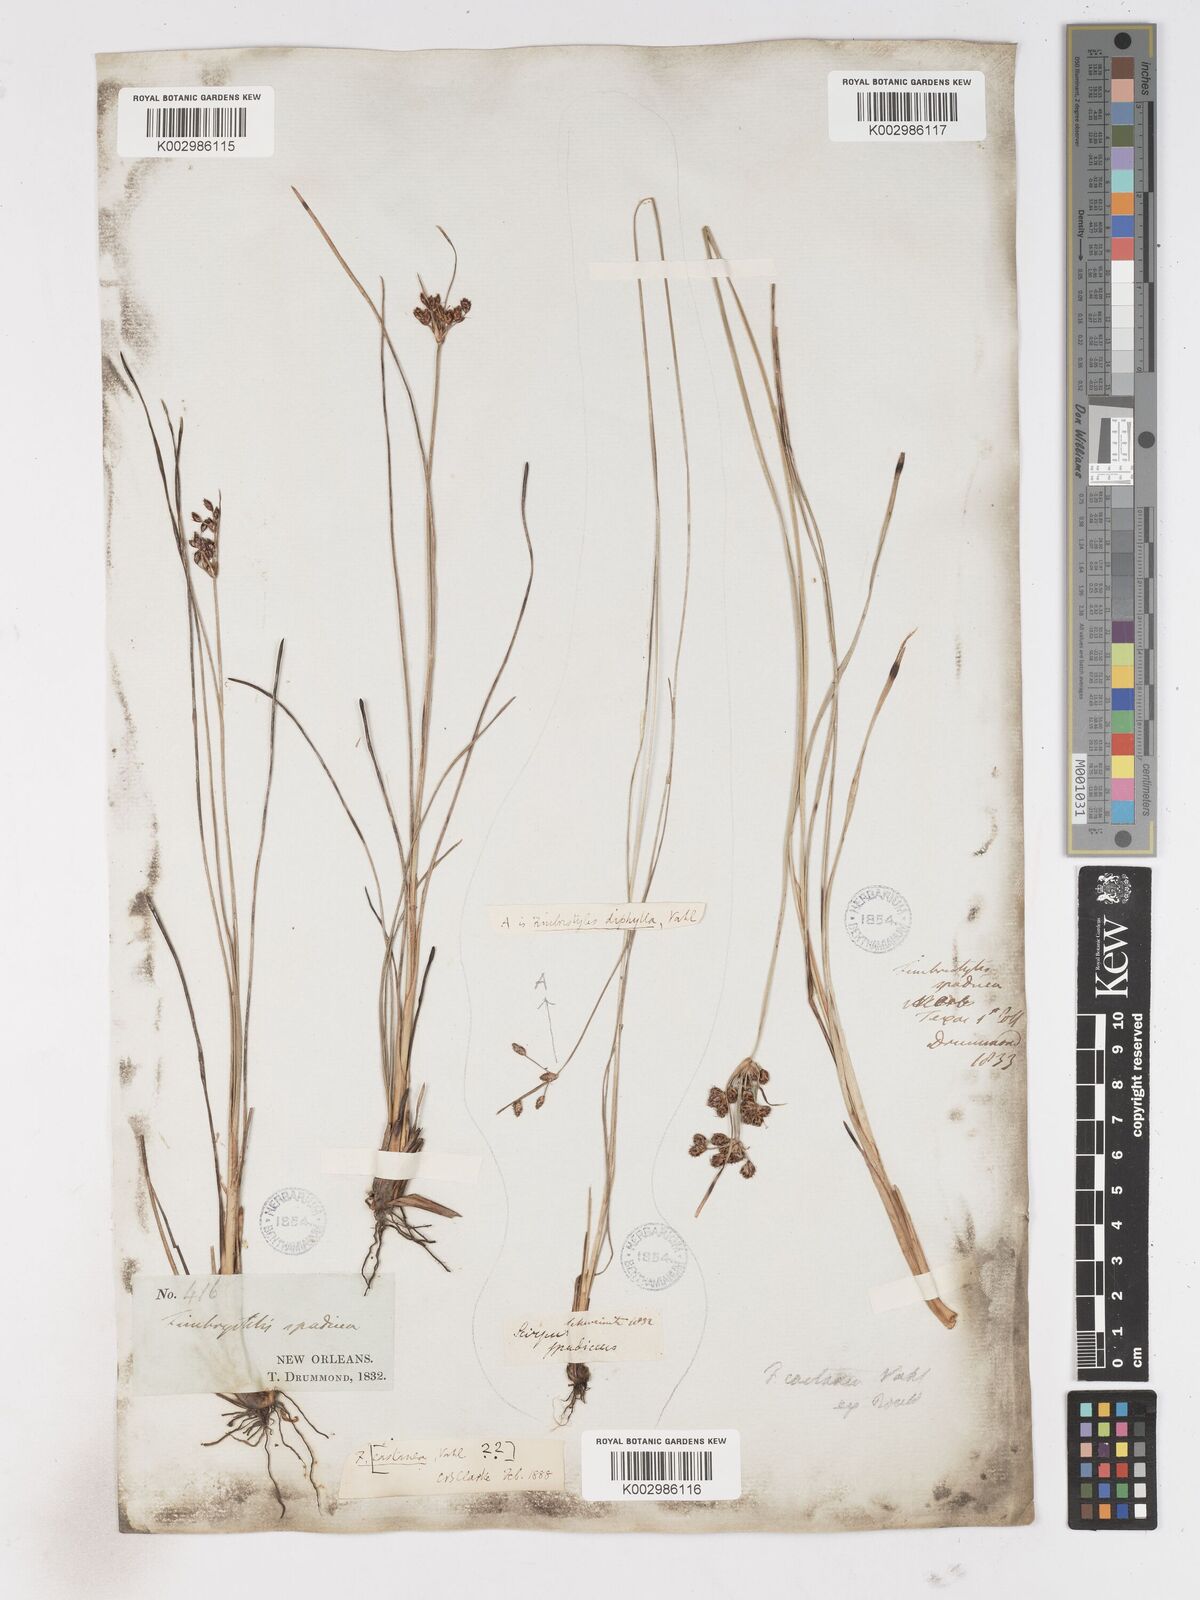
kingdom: Plantae
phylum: Tracheophyta
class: Liliopsida
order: Poales
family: Cyperaceae
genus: Fimbristylis
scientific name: Fimbristylis spadicea
